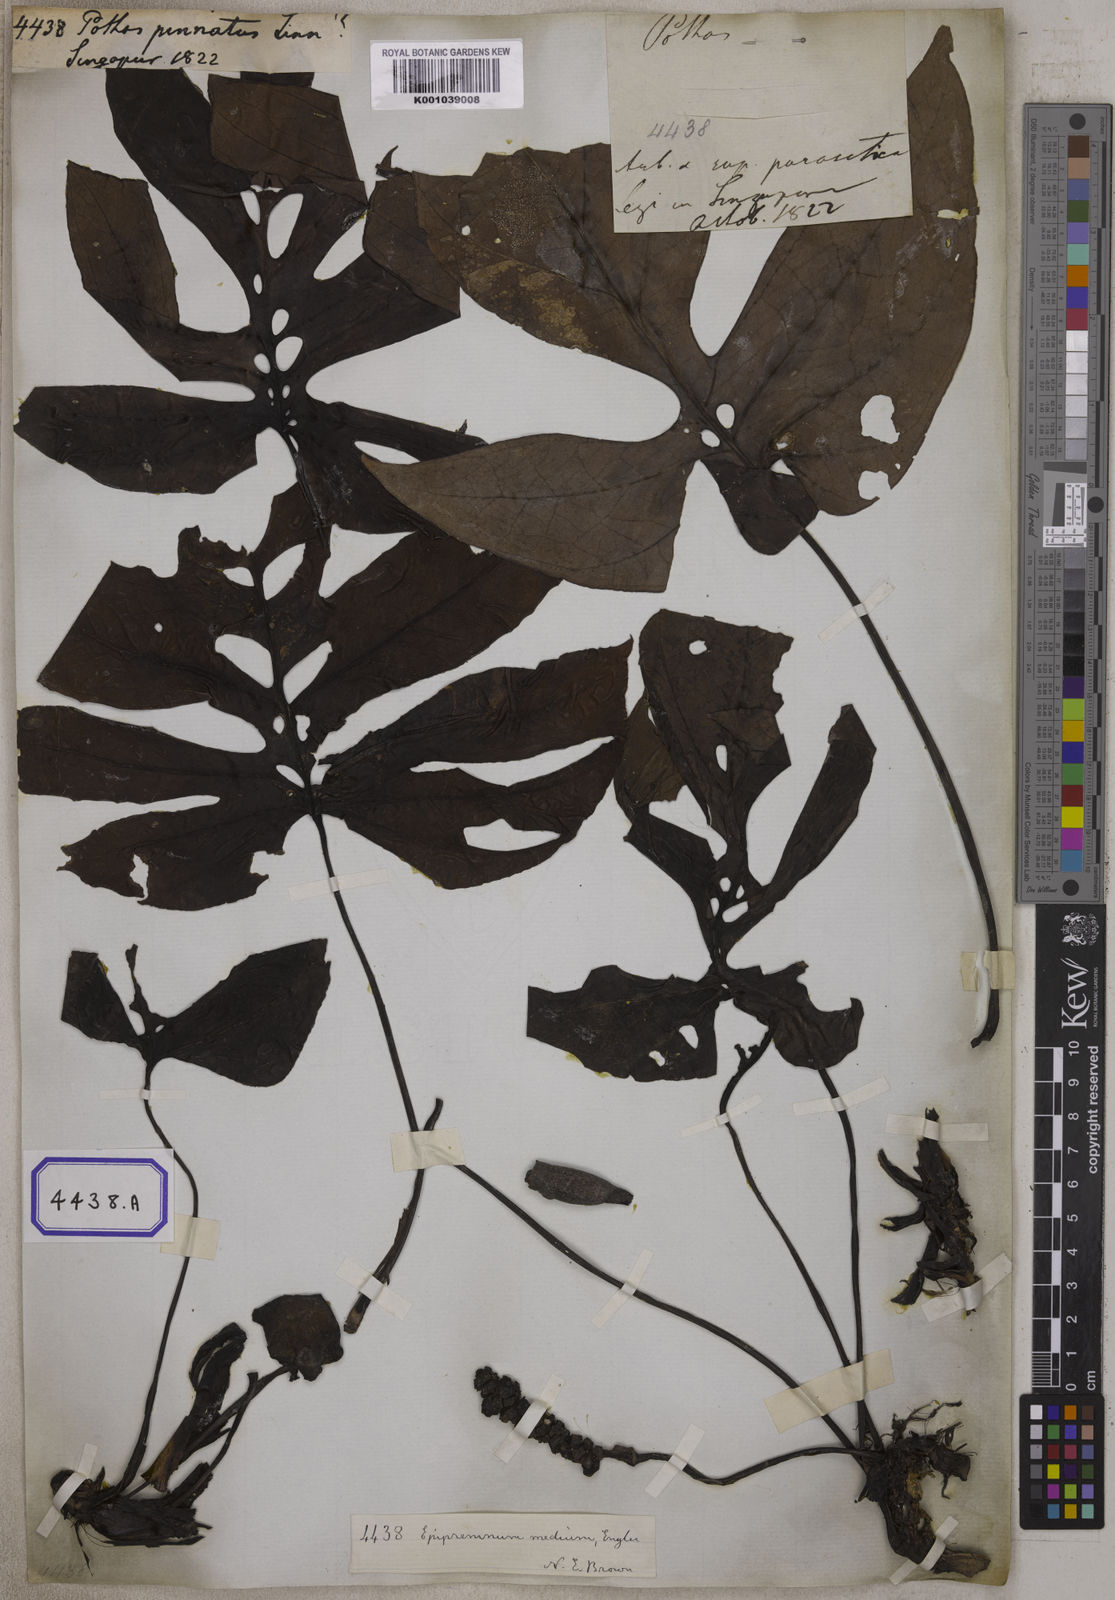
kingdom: Plantae
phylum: Tracheophyta
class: Liliopsida
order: Alismatales
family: Araceae
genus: Pothos
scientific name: Pothos
